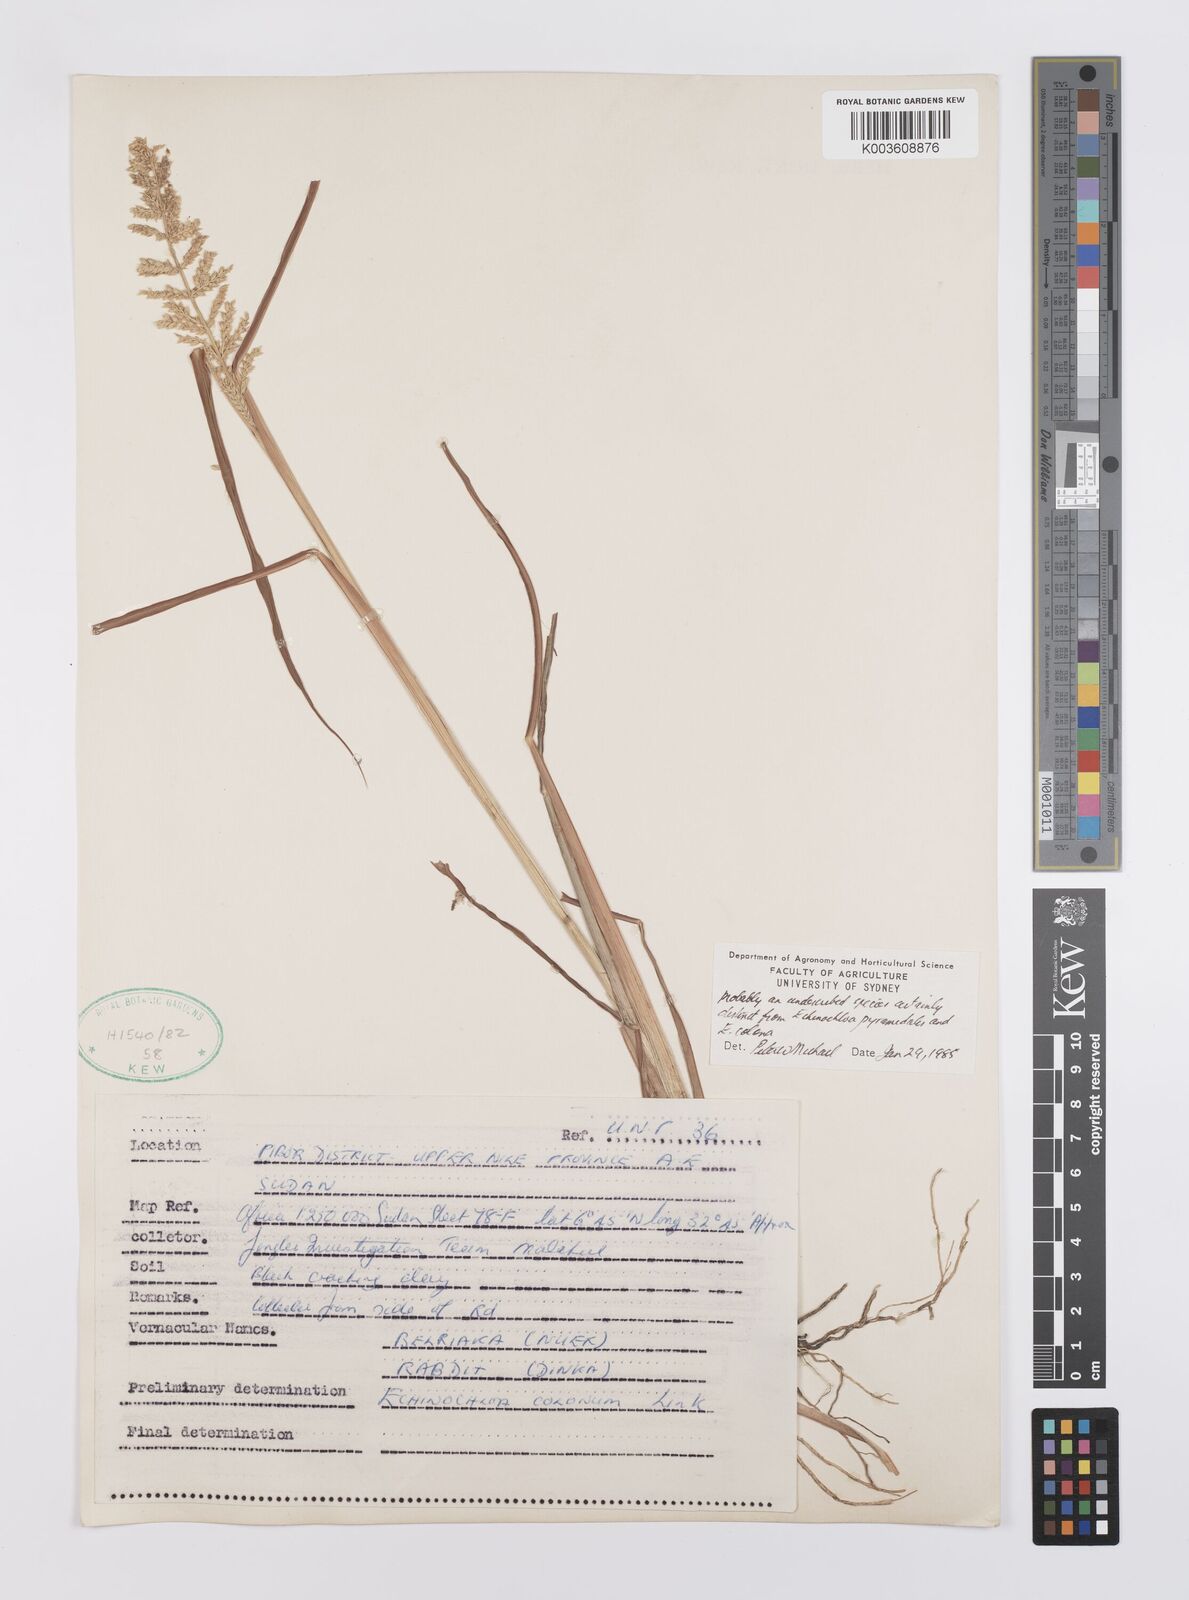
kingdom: Plantae
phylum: Tracheophyta
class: Liliopsida
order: Poales
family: Poaceae
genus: Echinochloa
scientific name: Echinochloa colonum
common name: Jungle rice
